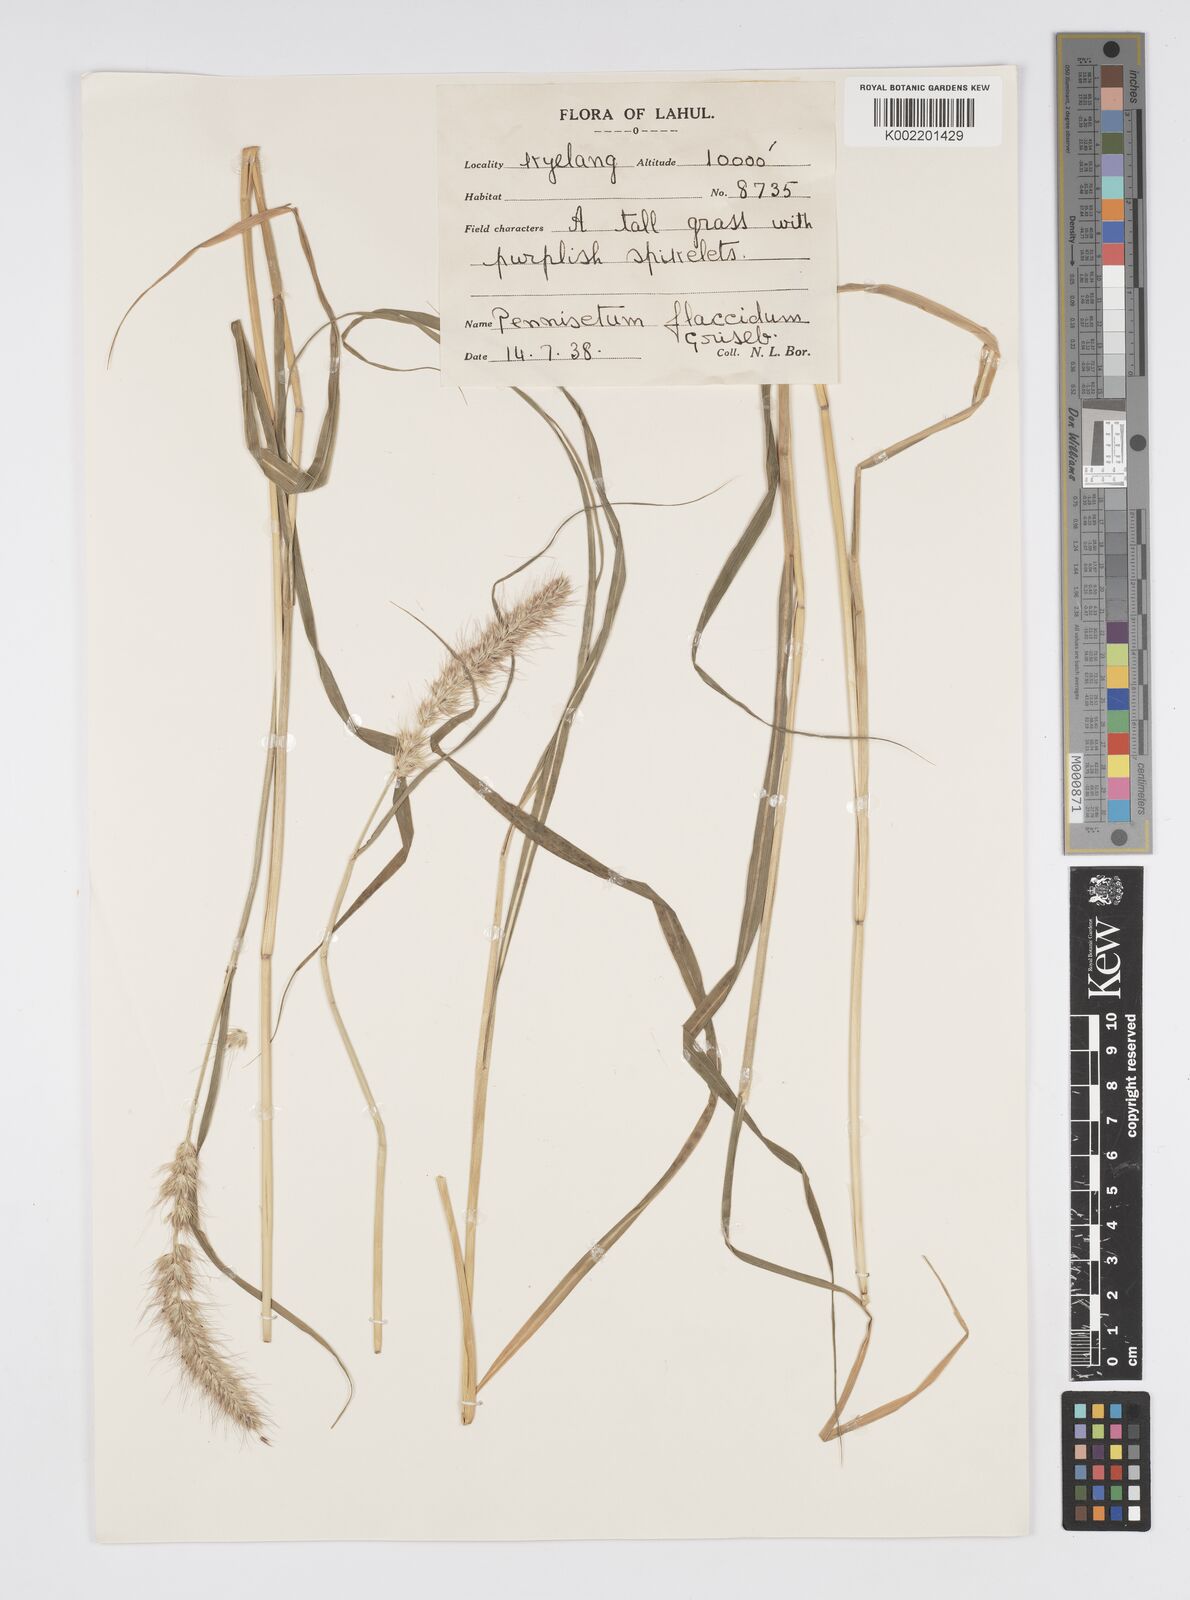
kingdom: Plantae
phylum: Tracheophyta
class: Liliopsida
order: Poales
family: Poaceae
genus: Cenchrus
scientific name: Cenchrus flaccidus
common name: Flaccid grass
